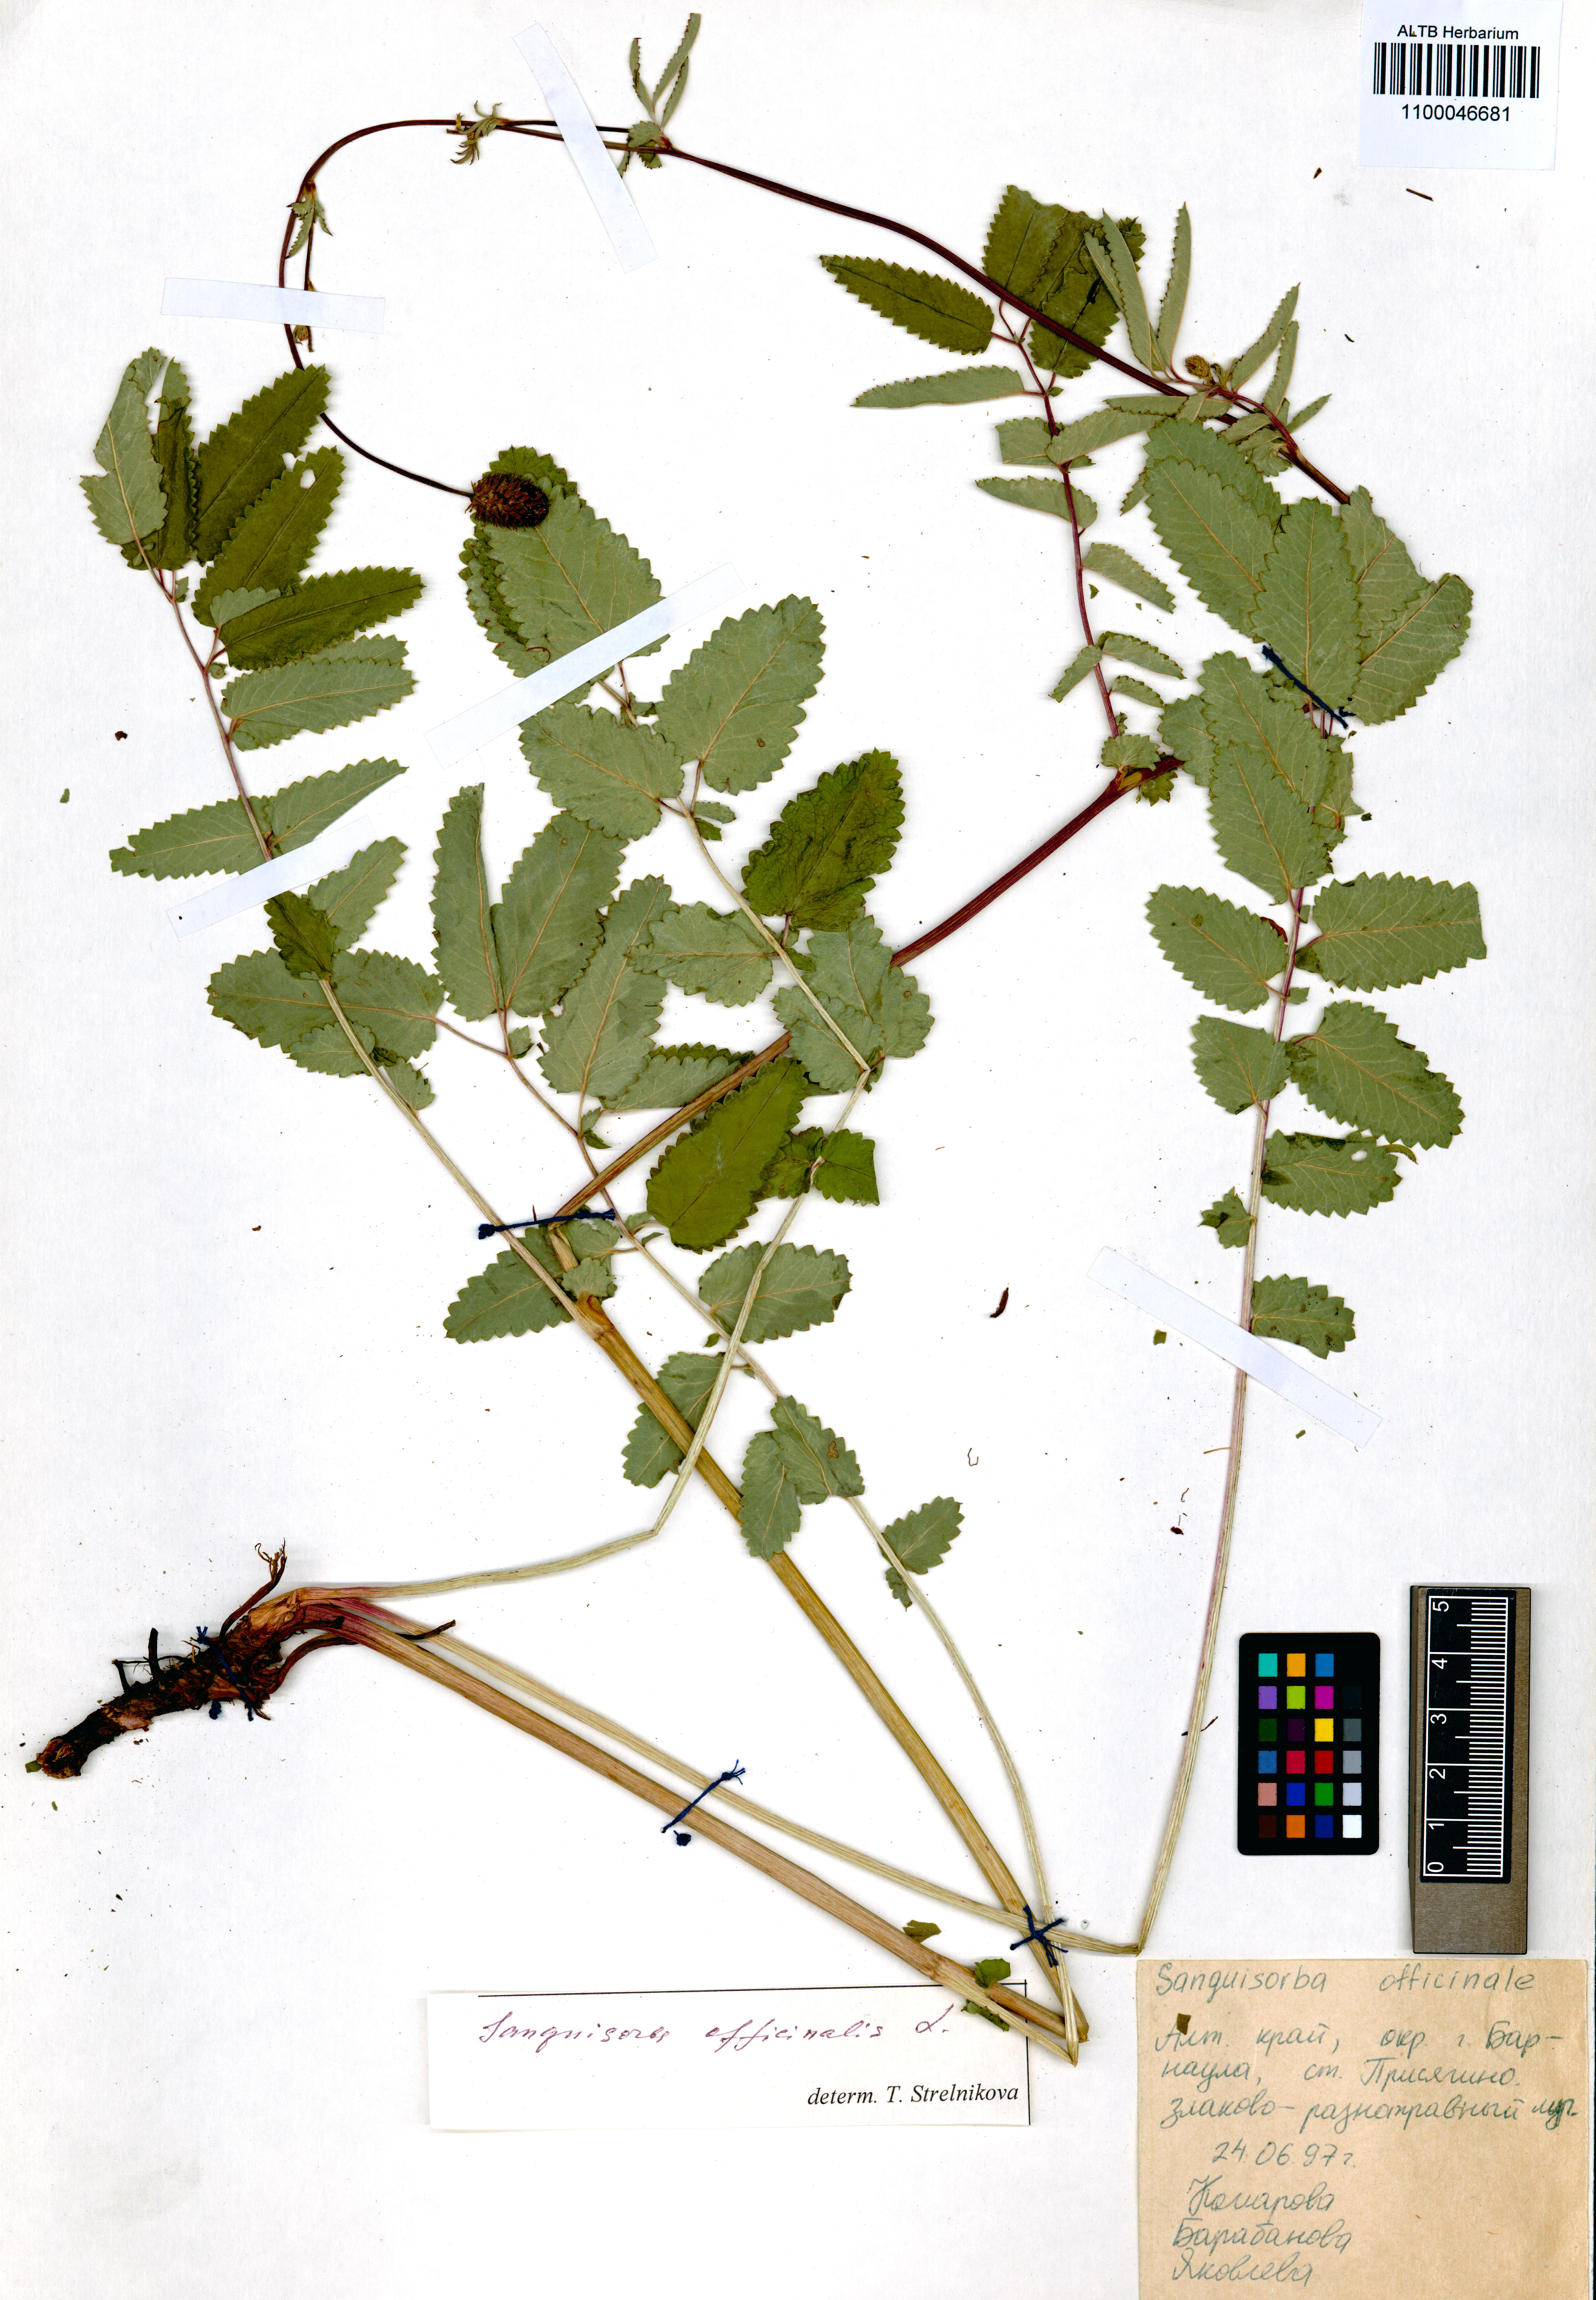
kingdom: Plantae
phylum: Tracheophyta
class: Magnoliopsida
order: Rosales
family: Rosaceae
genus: Sanguisorba
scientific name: Sanguisorba officinalis
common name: Great burnet
